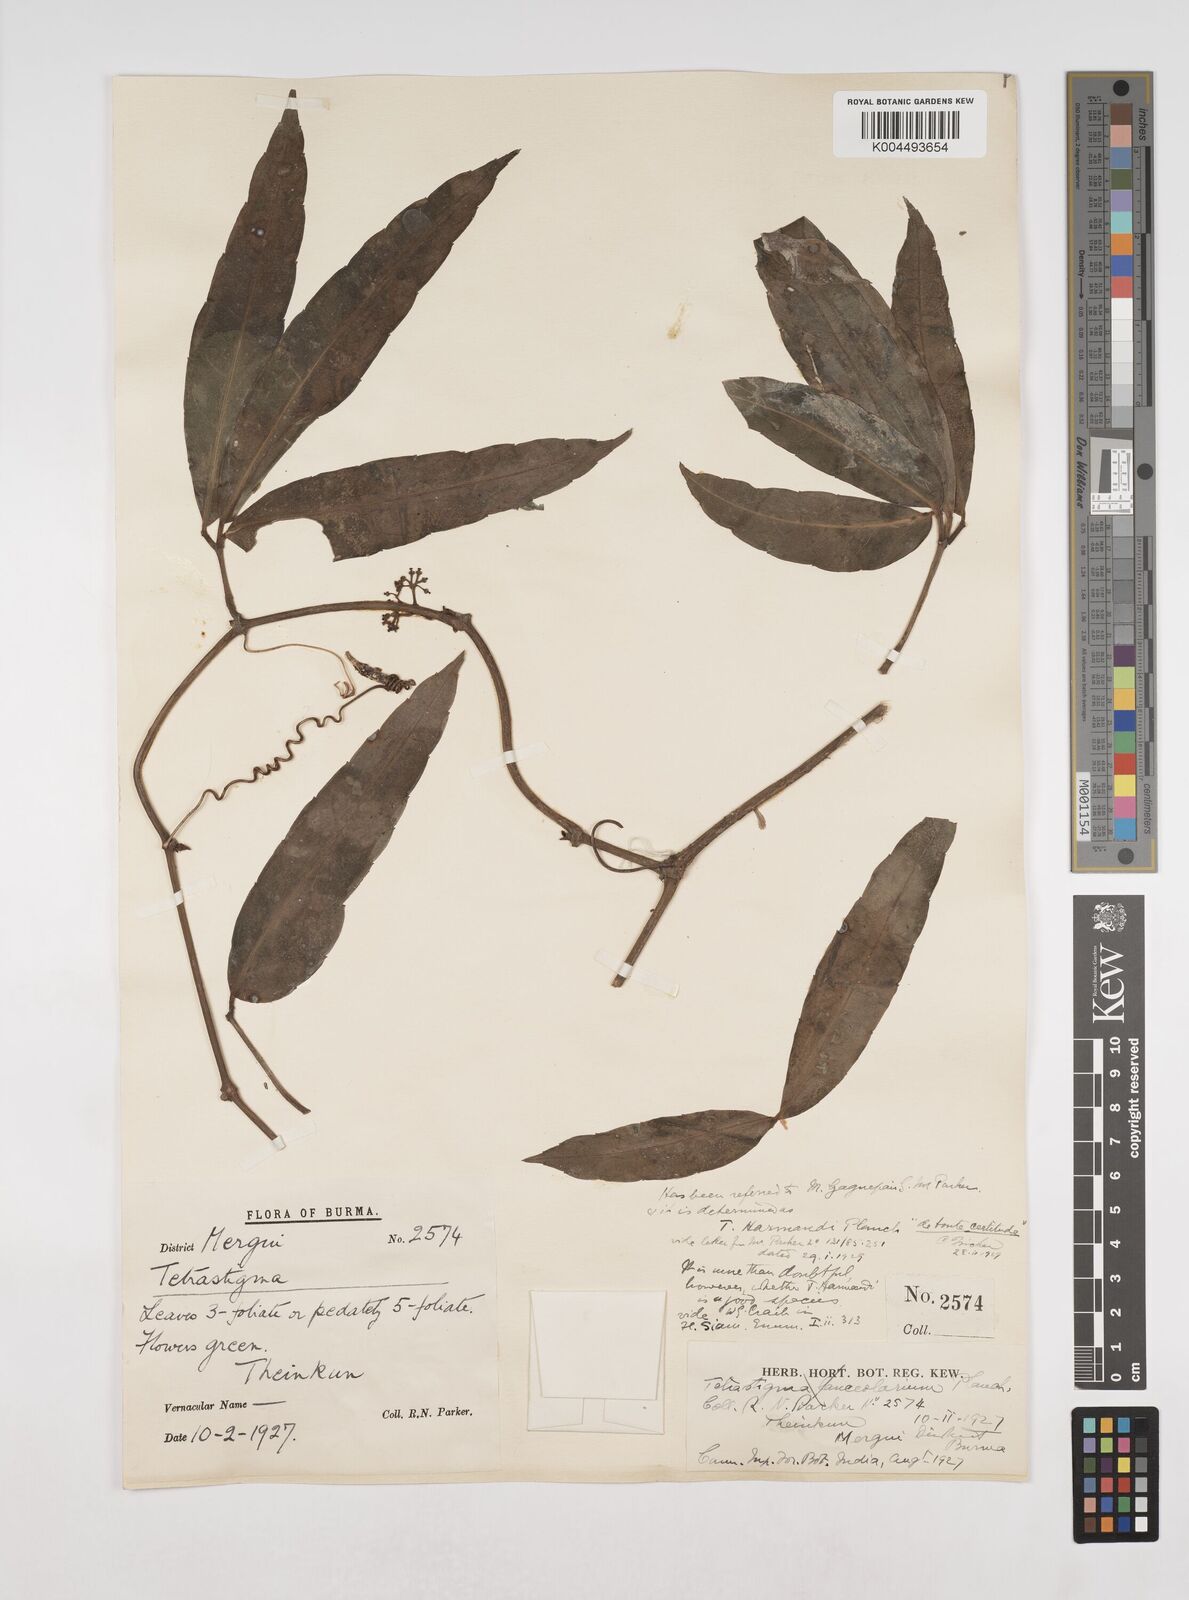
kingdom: Plantae
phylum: Tracheophyta
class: Magnoliopsida
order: Vitales
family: Vitaceae
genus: Tetrastigma
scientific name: Tetrastigma harmandii
